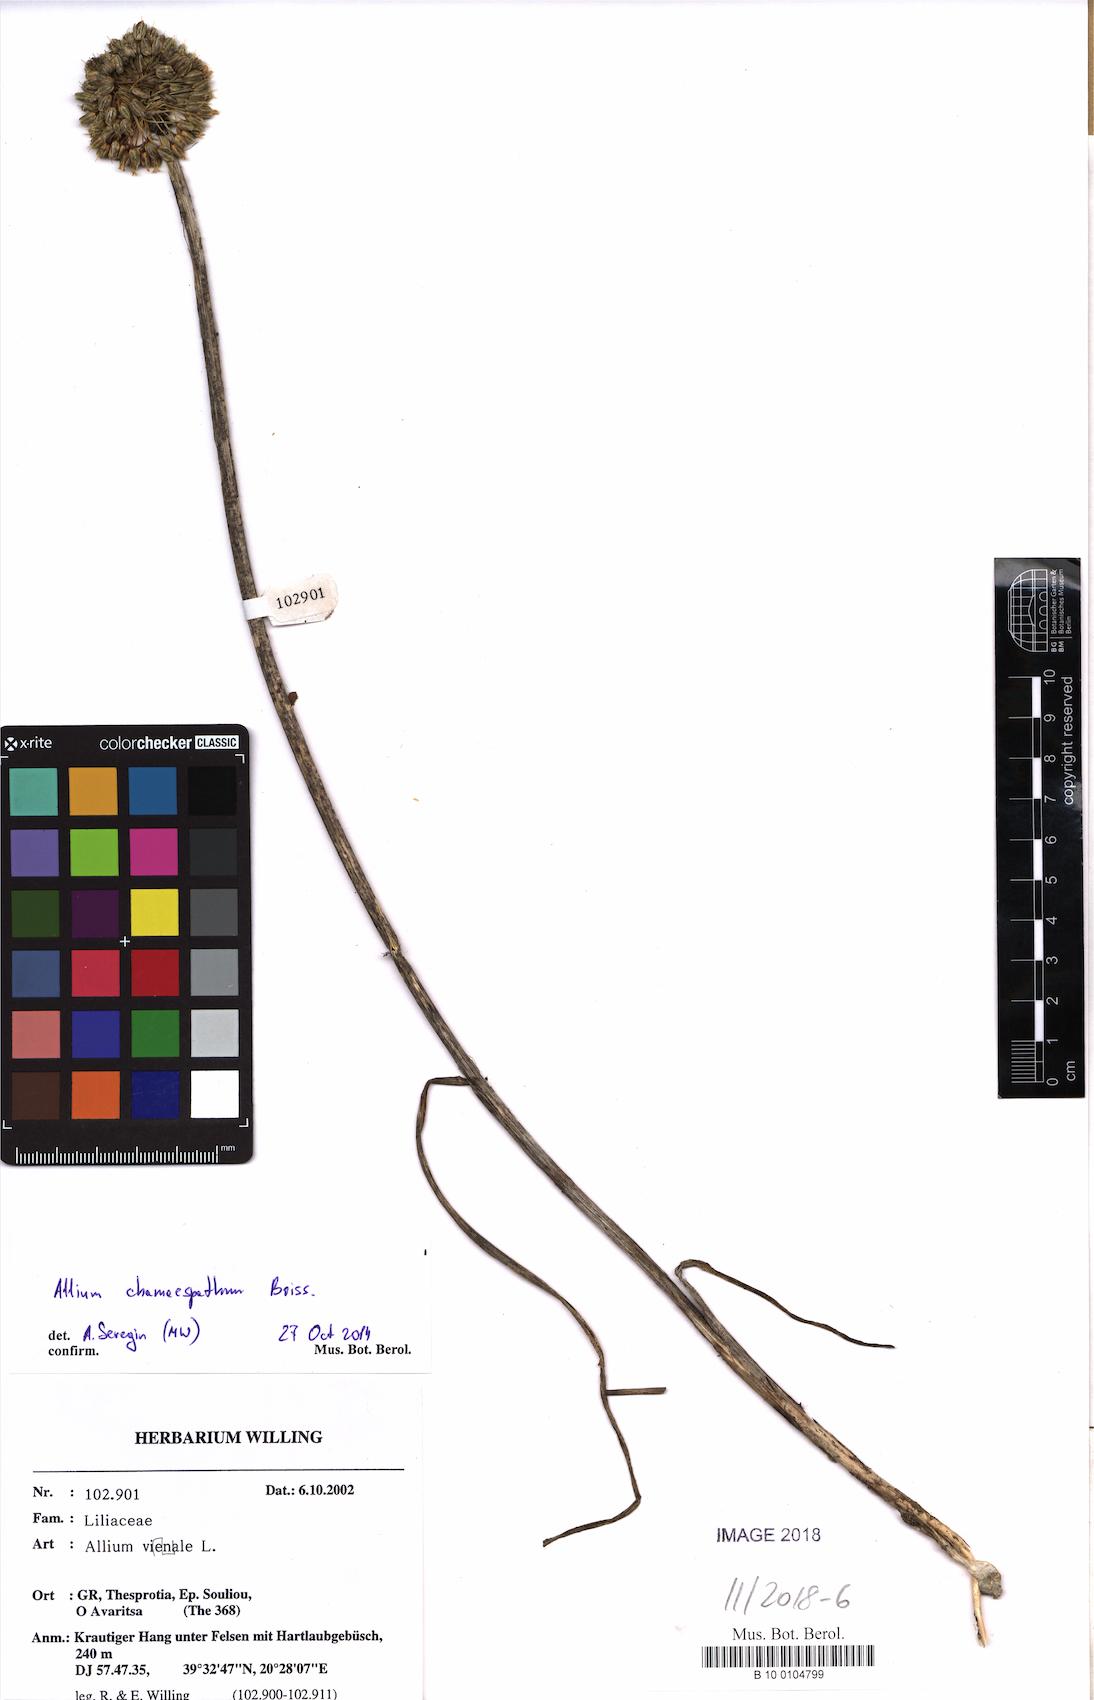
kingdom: Plantae
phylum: Tracheophyta
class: Liliopsida
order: Asparagales
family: Amaryllidaceae
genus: Allium
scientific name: Allium chamaespathum
